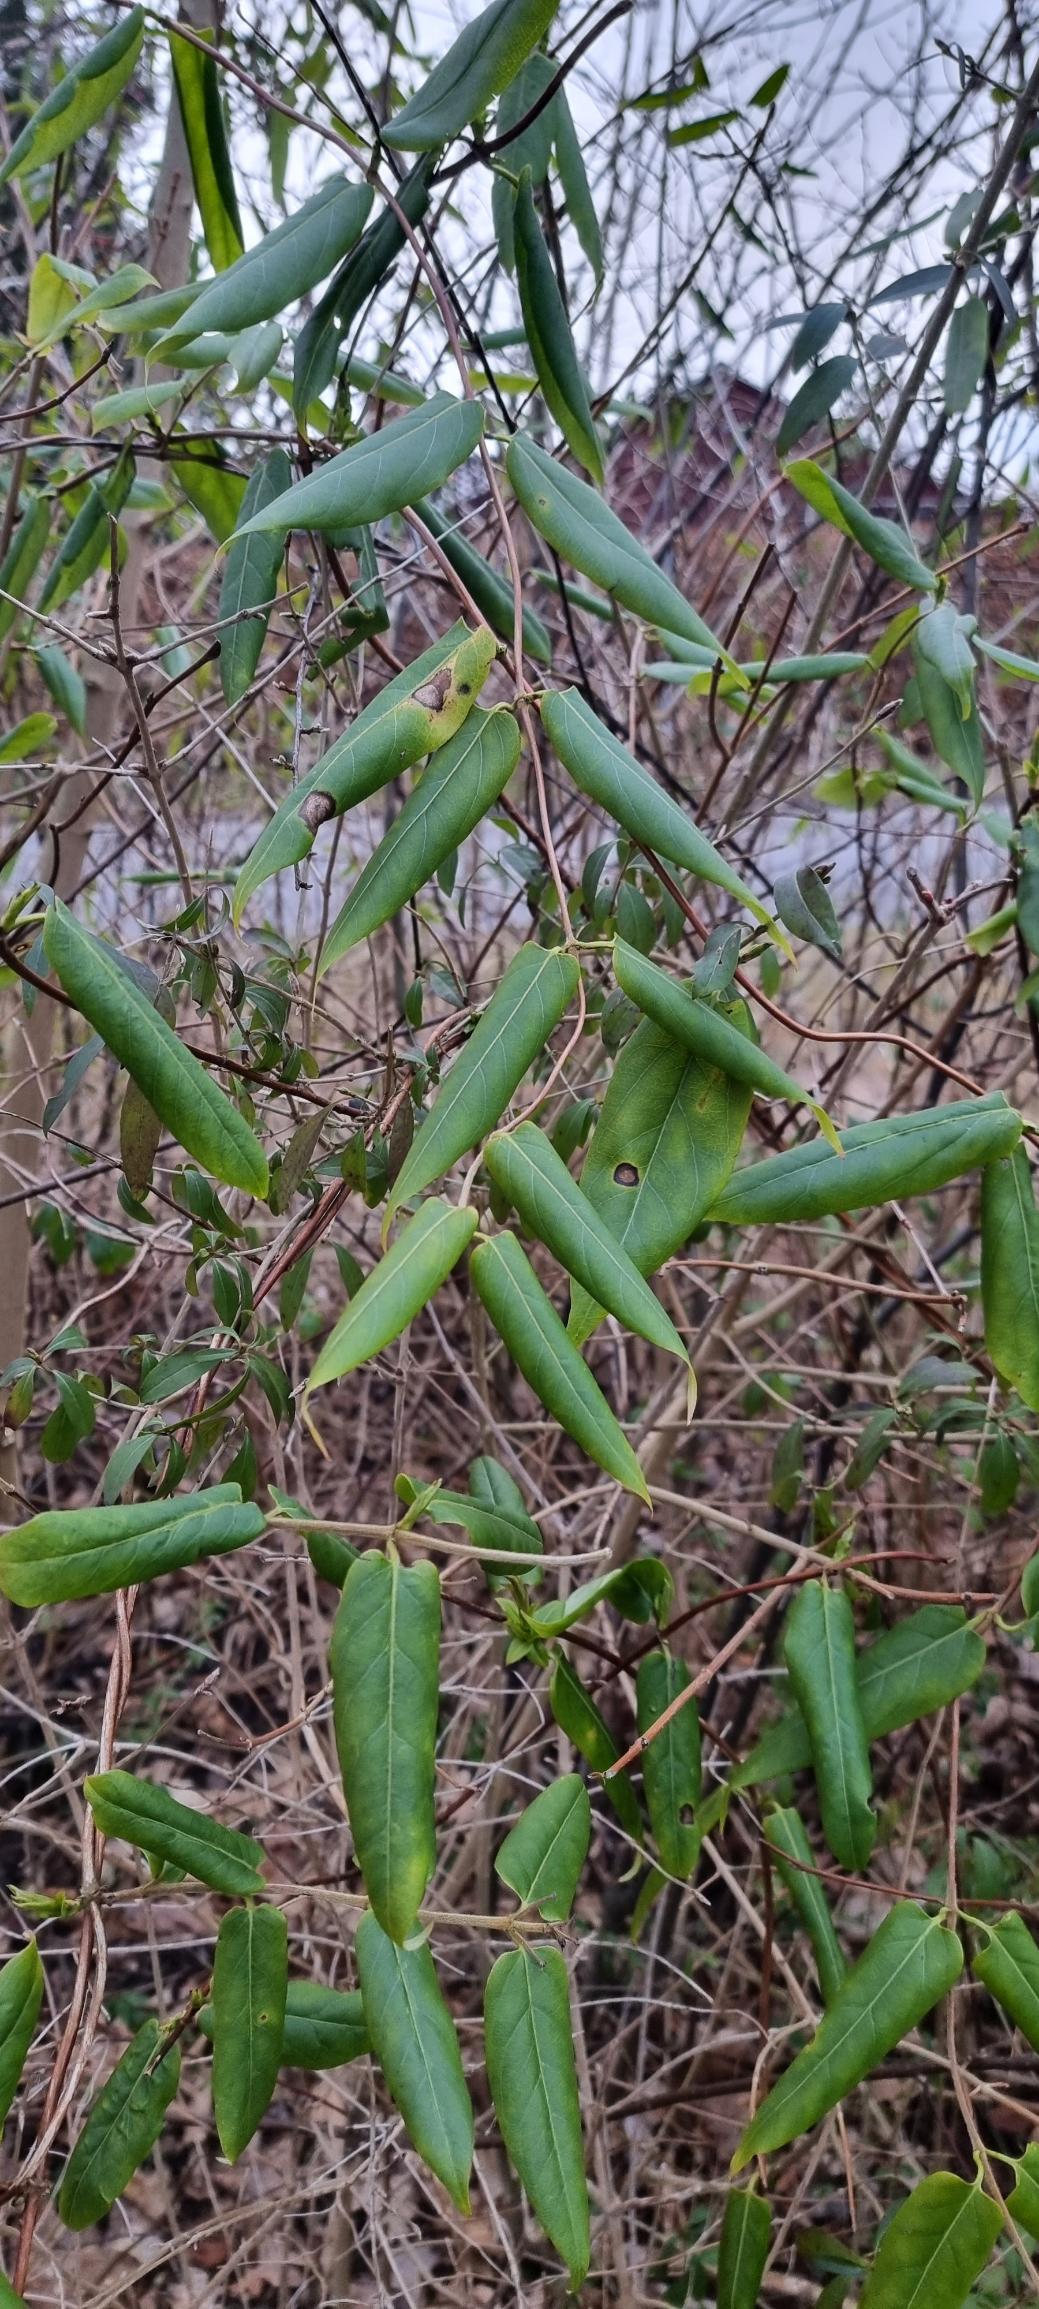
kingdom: Plantae
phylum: Tracheophyta
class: Magnoliopsida
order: Dipsacales
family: Caprifoliaceae
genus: Lonicera
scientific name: Lonicera acuminata
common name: Henrys gedeblad
